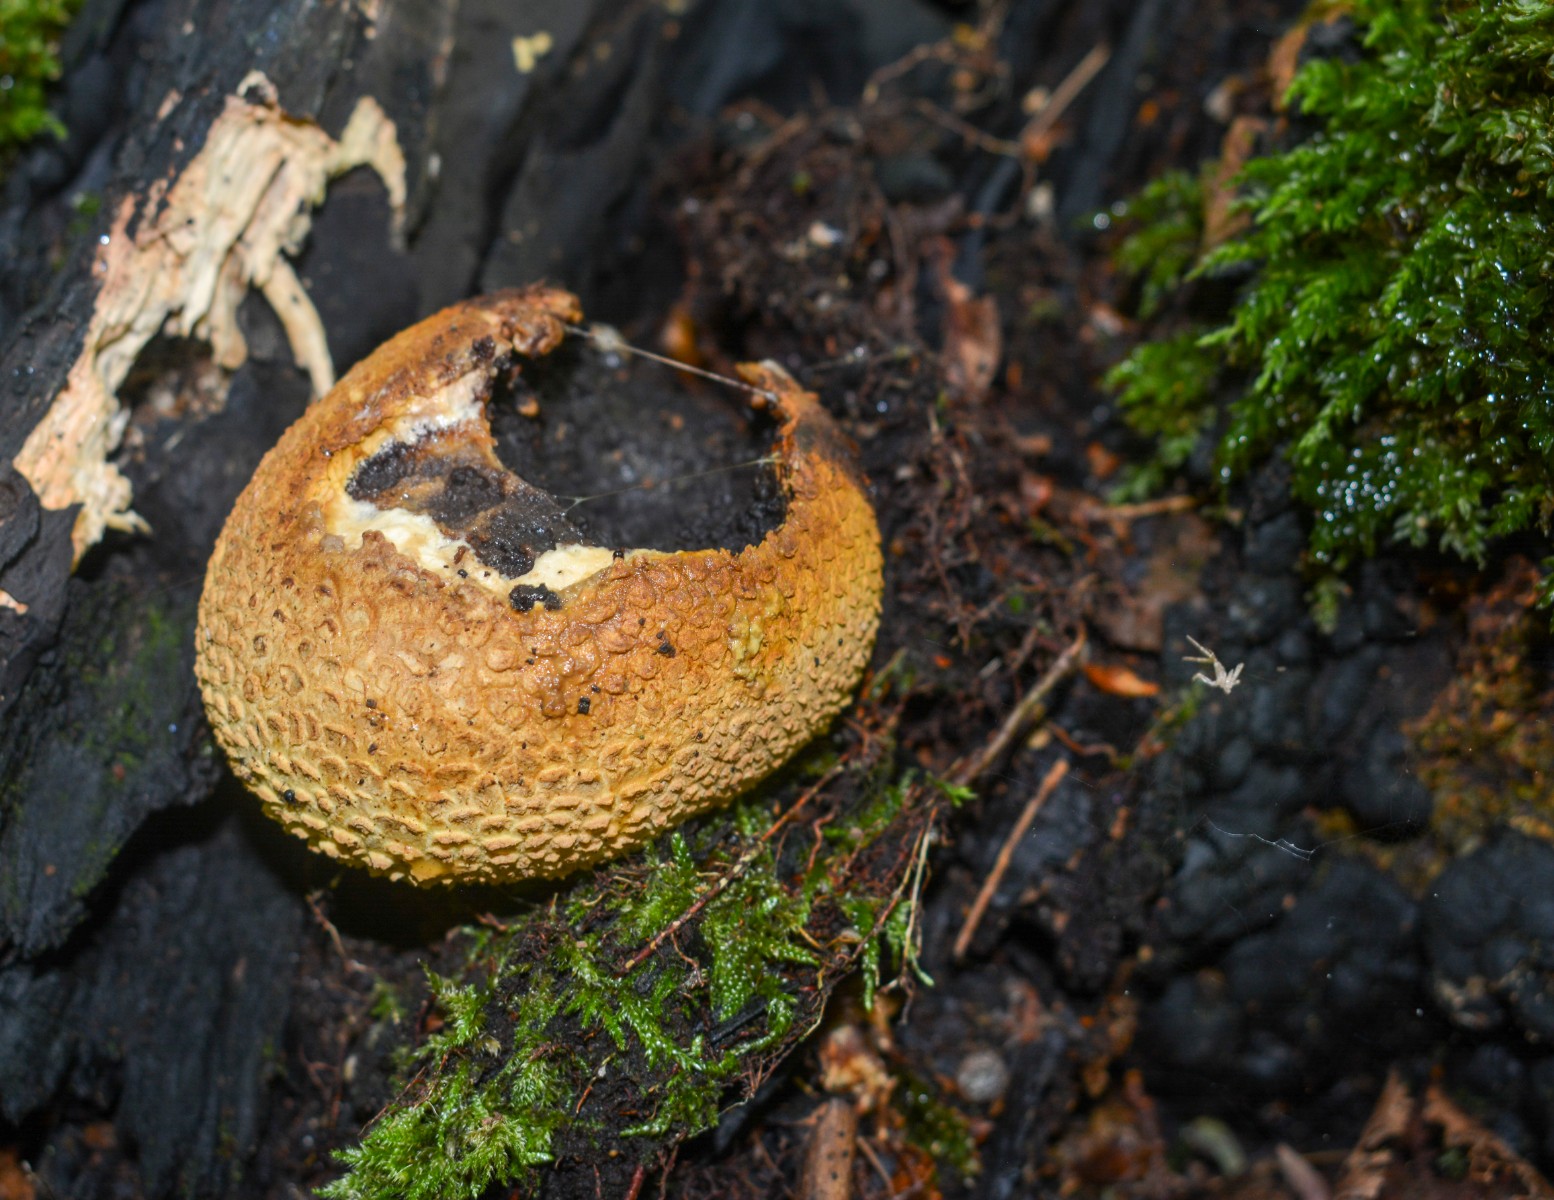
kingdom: Fungi
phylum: Basidiomycota
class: Agaricomycetes
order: Boletales
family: Sclerodermataceae
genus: Scleroderma
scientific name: Scleroderma citrinum
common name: almindelig bruskbold
